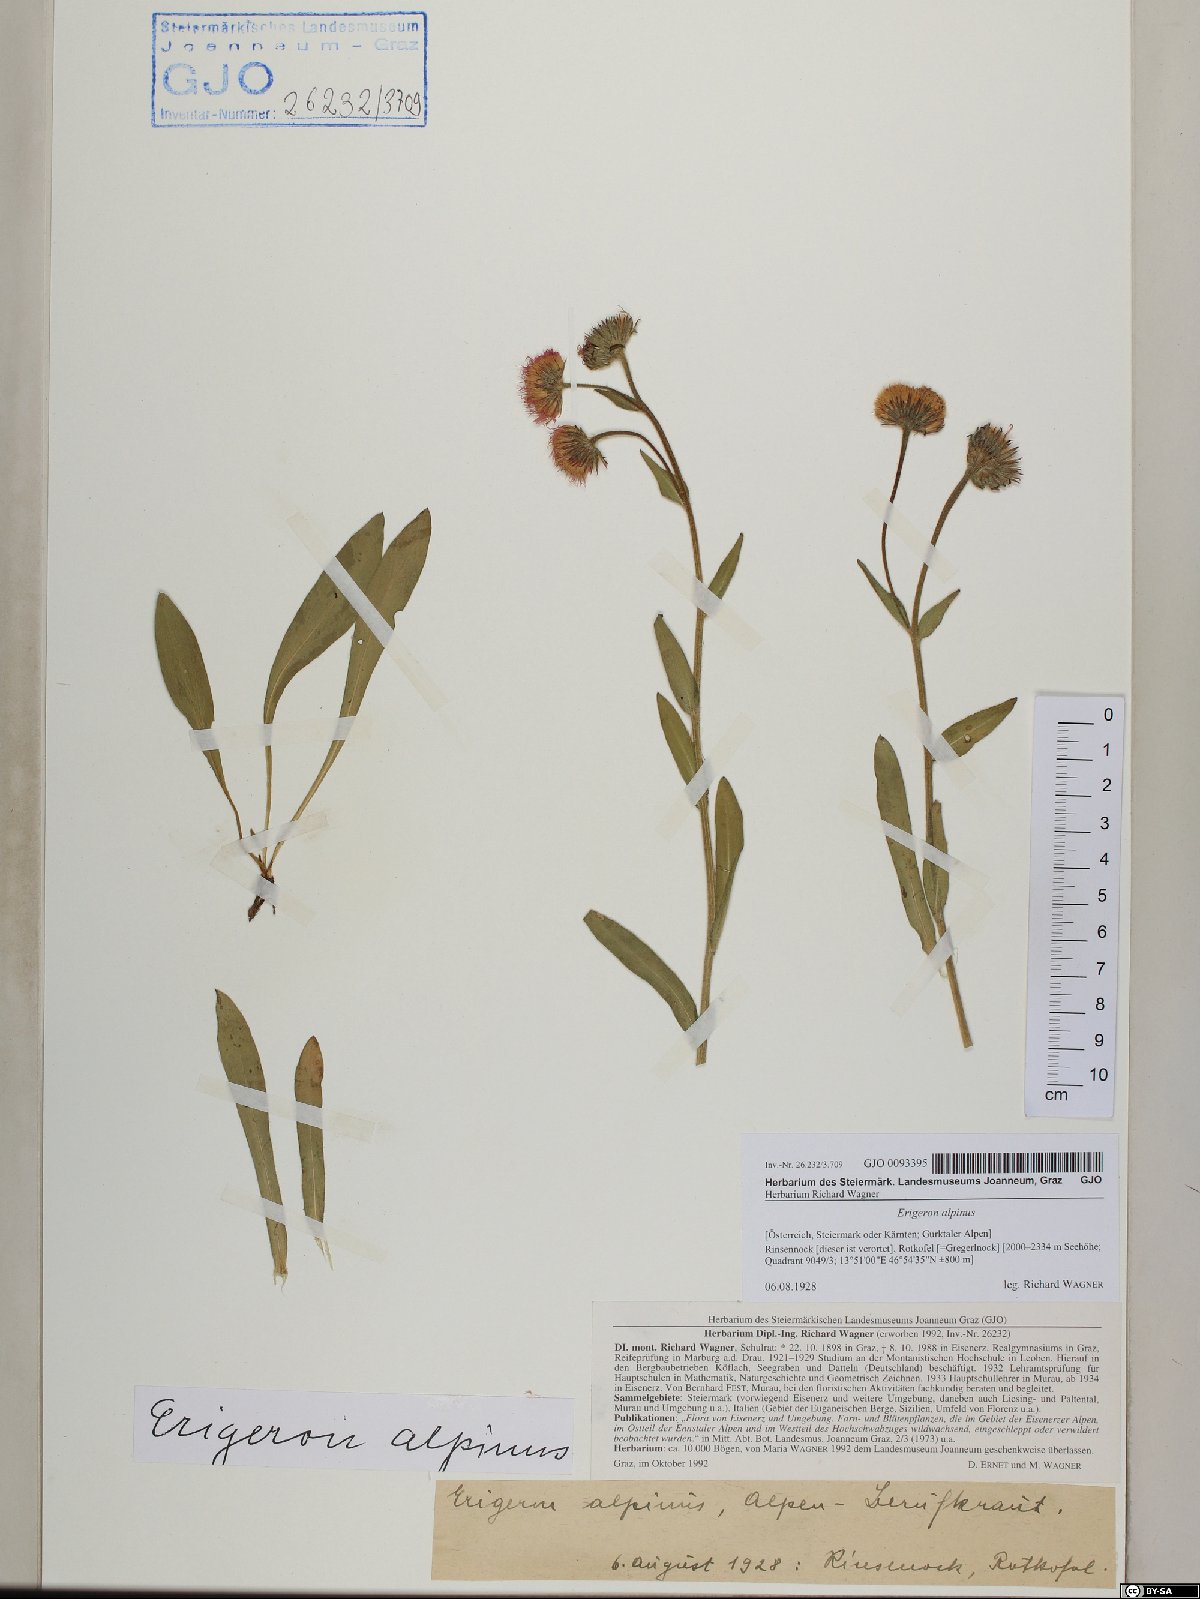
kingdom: Plantae
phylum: Tracheophyta
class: Magnoliopsida
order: Asterales
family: Asteraceae
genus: Erigeron
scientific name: Erigeron alpinus
